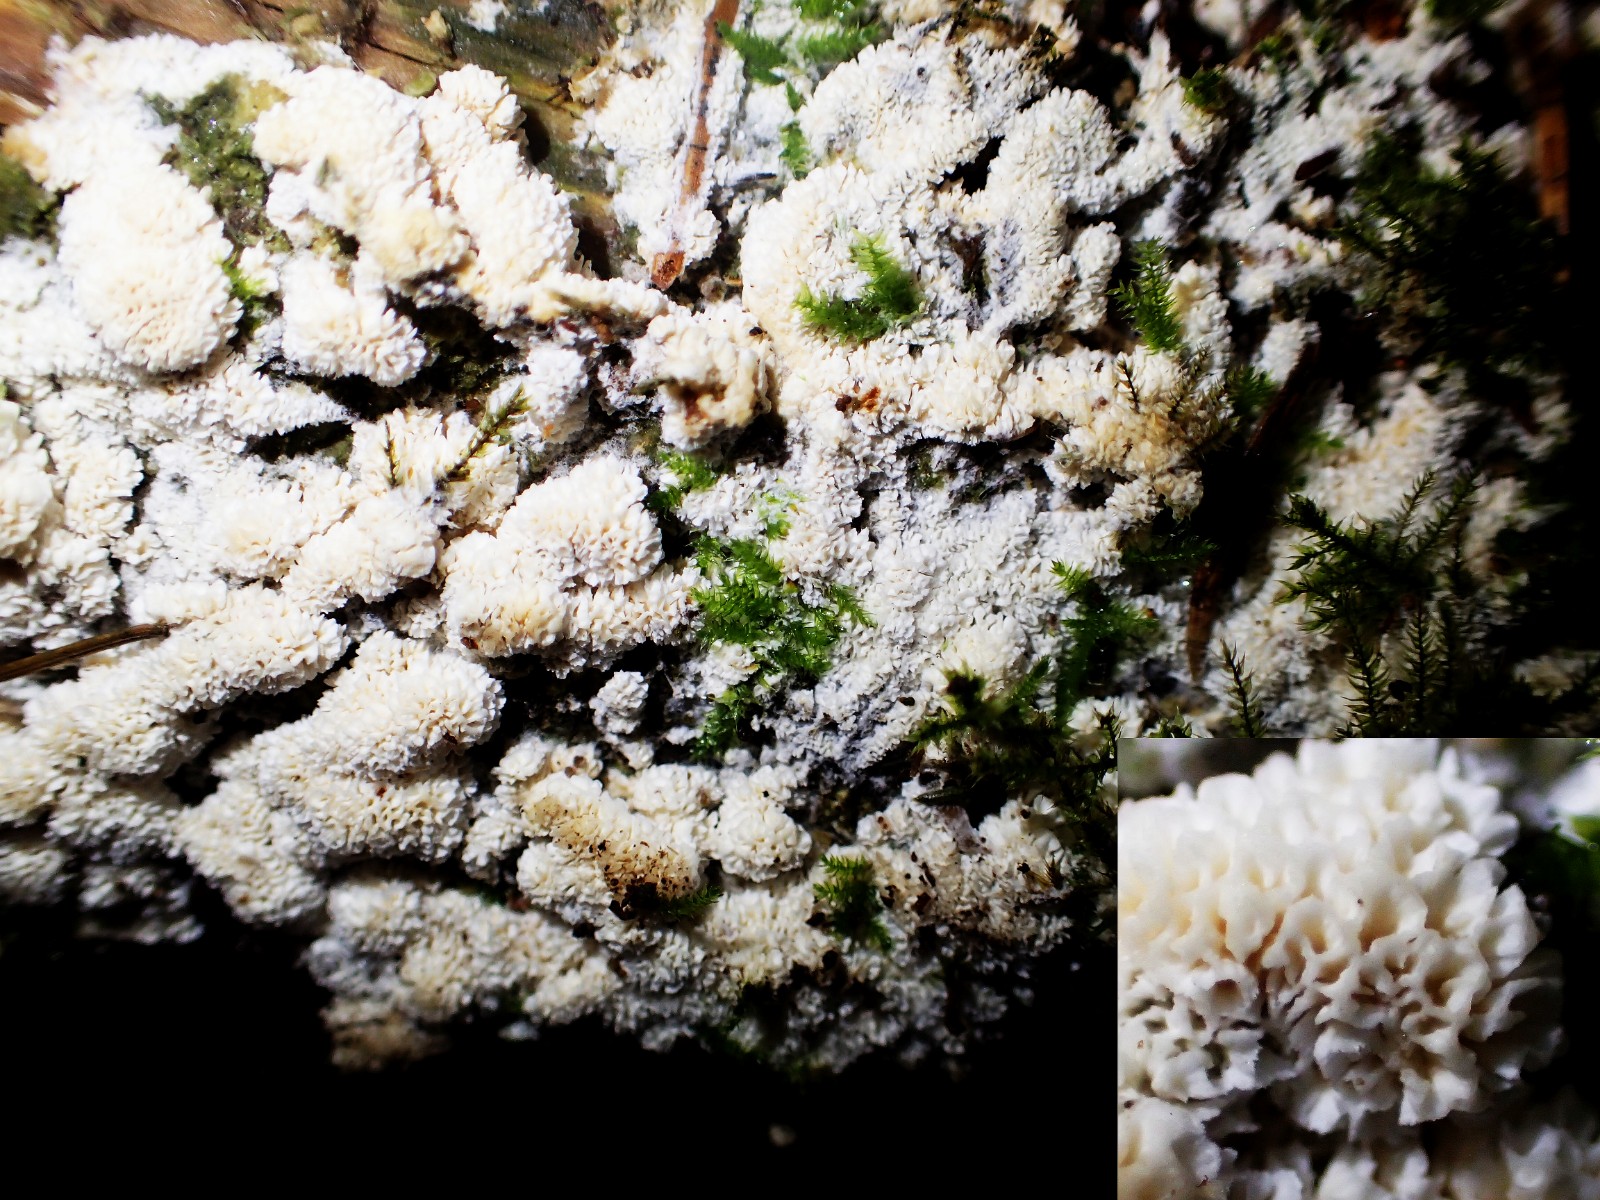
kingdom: Fungi
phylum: Basidiomycota
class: Agaricomycetes
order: Hymenochaetales
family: Schizoporaceae
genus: Xylodon
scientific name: Xylodon
